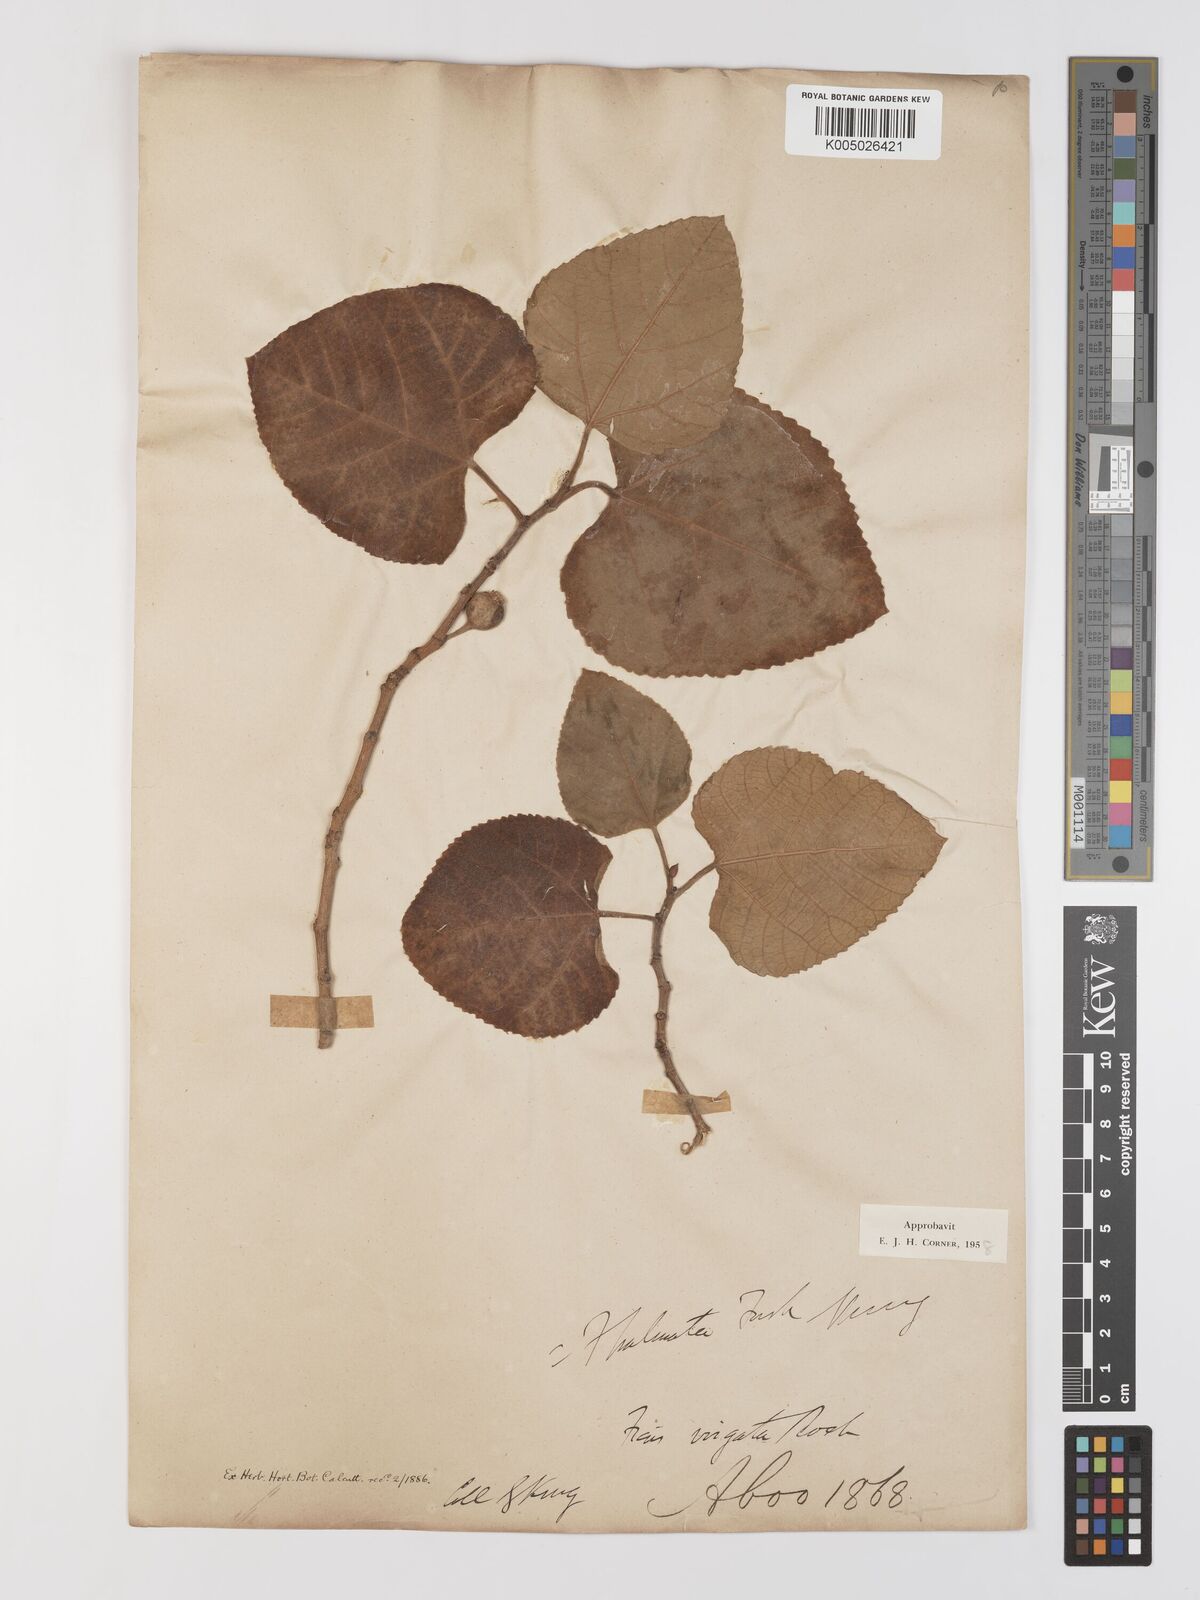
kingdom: Plantae
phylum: Tracheophyta
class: Magnoliopsida
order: Rosales
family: Moraceae
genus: Ficus
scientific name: Ficus
